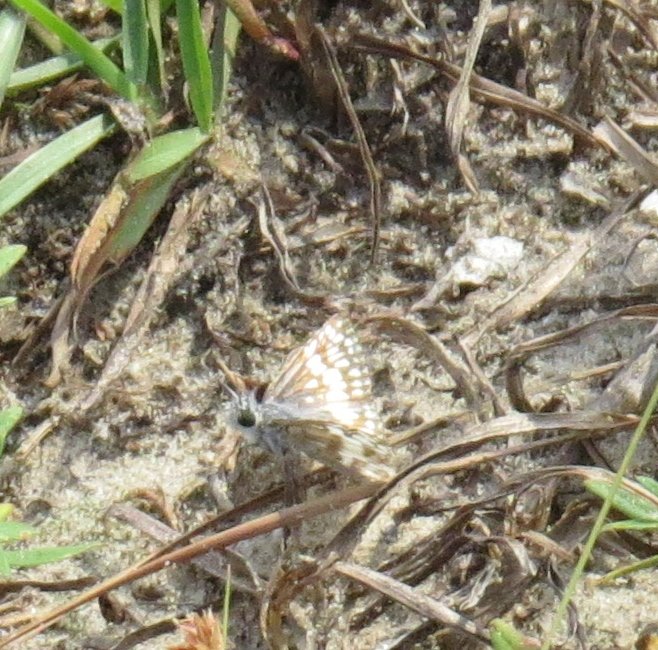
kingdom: Animalia
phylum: Arthropoda
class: Insecta
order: Lepidoptera
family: Hesperiidae
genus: Pyrgus
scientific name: Pyrgus oileus
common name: Tropical Checkered-Skipper
